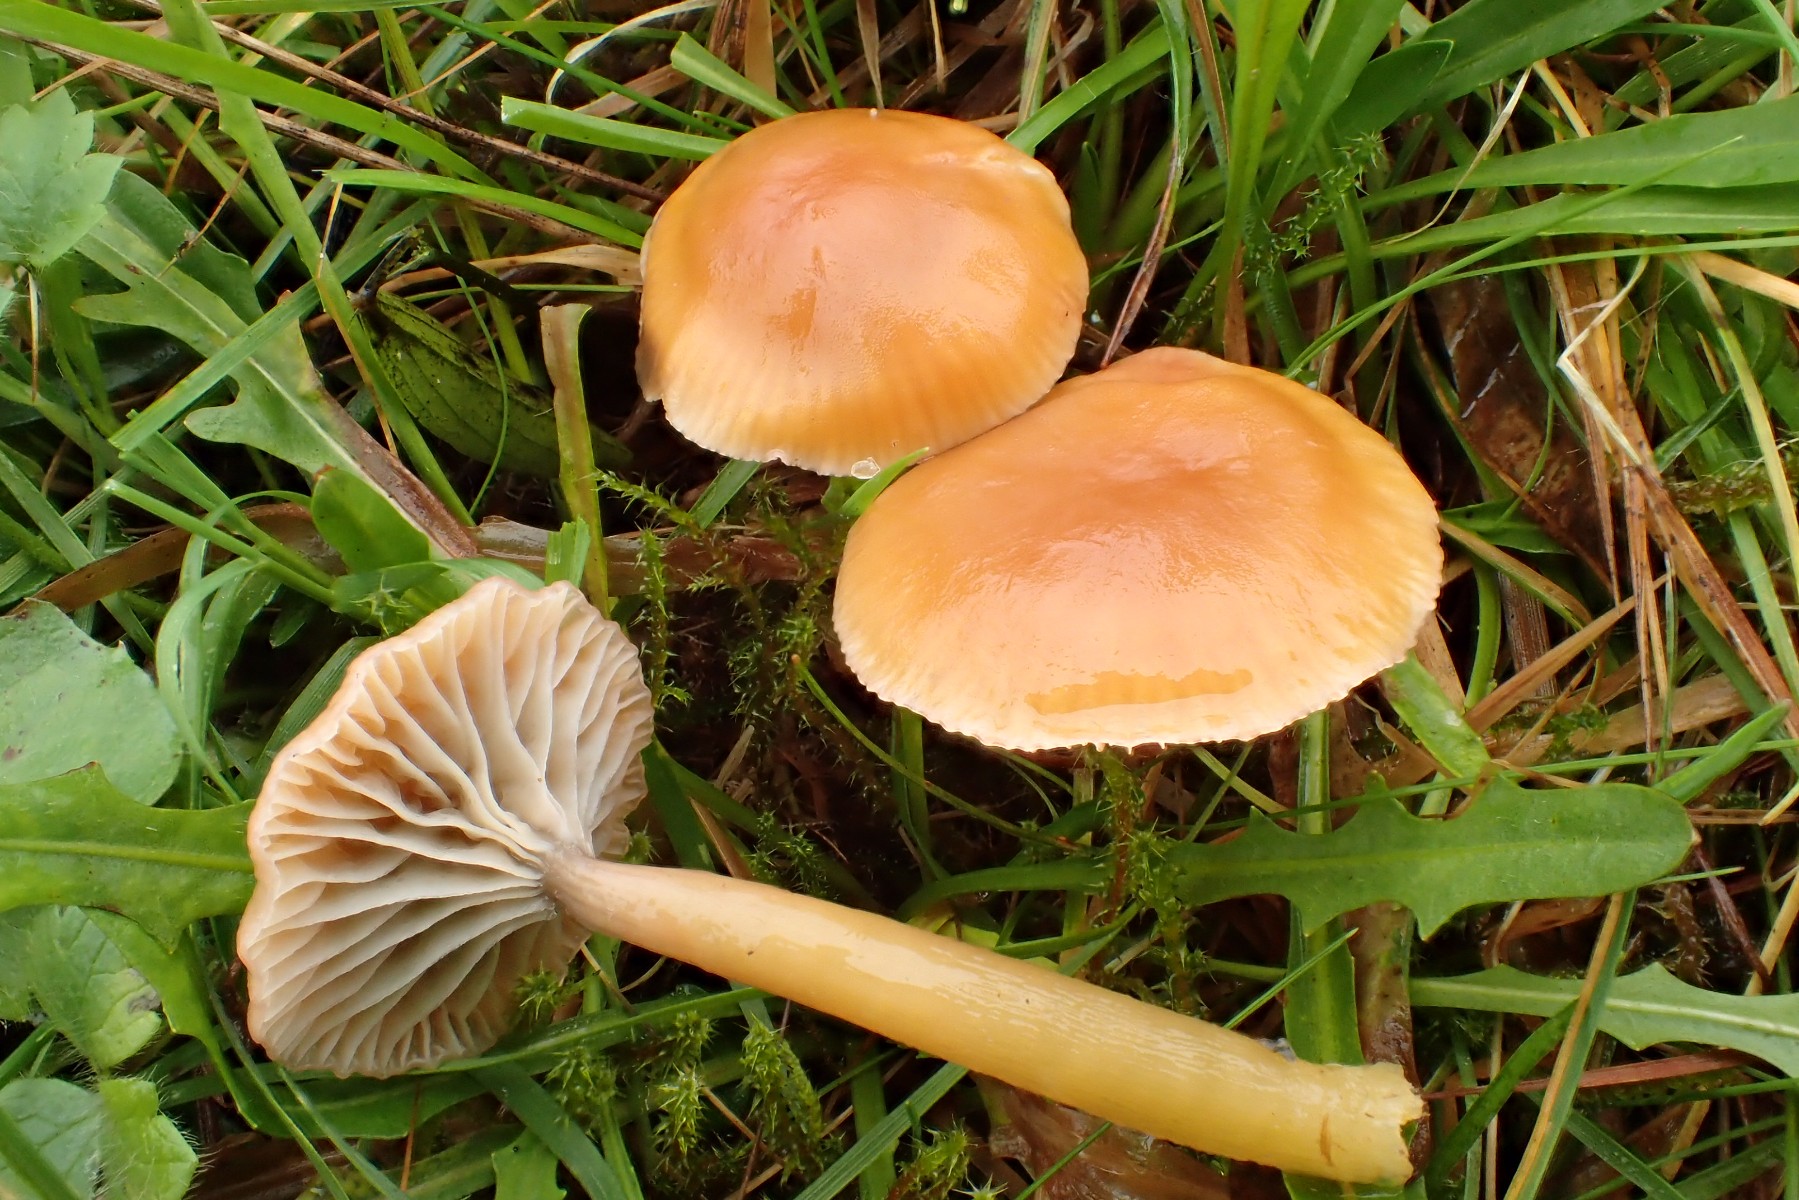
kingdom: Fungi
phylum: Basidiomycota
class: Agaricomycetes
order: Agaricales
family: Hygrophoraceae
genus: Gliophorus
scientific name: Gliophorus laetus
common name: brusk-vokshat
